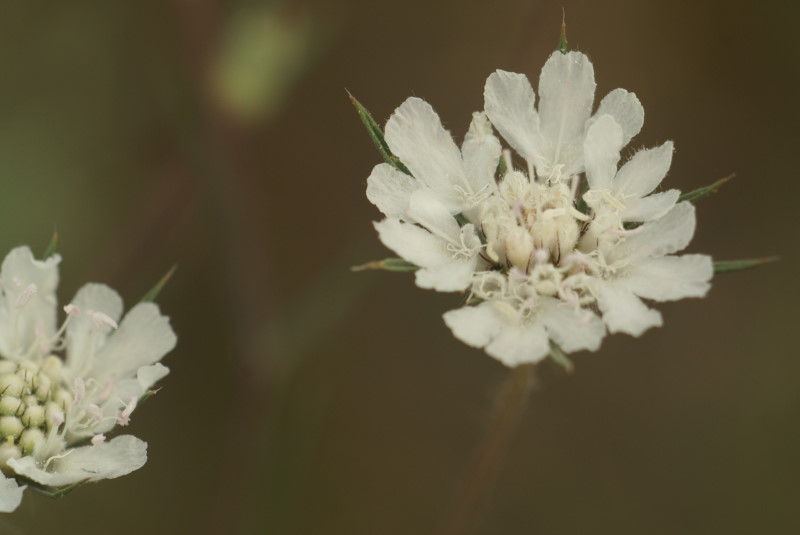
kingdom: Plantae
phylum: Tracheophyta
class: Magnoliopsida
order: Dipsacales
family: Caprifoliaceae
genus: Scabiosa
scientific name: Scabiosa
